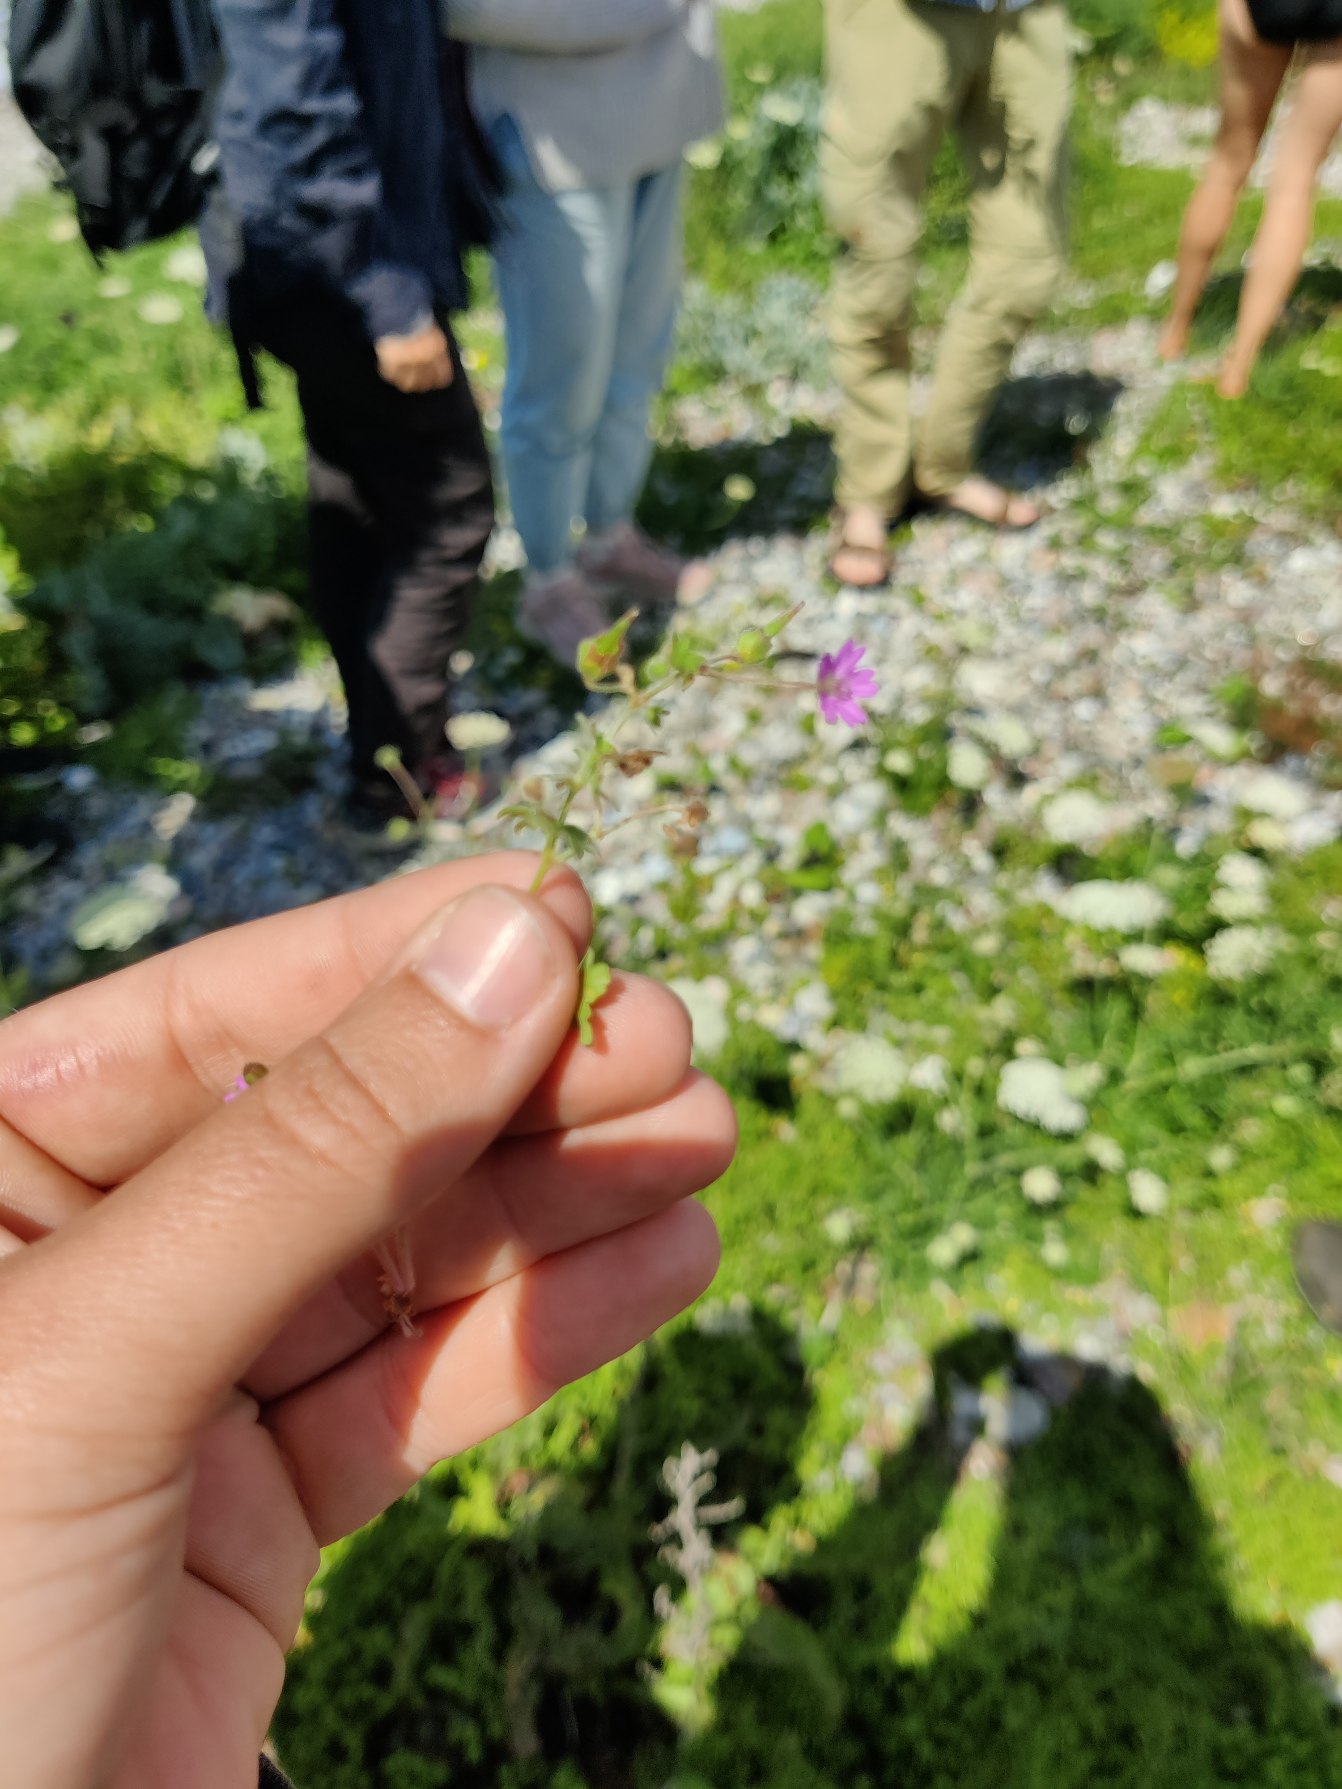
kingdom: Plantae
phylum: Tracheophyta
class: Magnoliopsida
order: Geraniales
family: Geraniaceae
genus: Geranium
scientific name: Geranium molle
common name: Blød storkenæb
